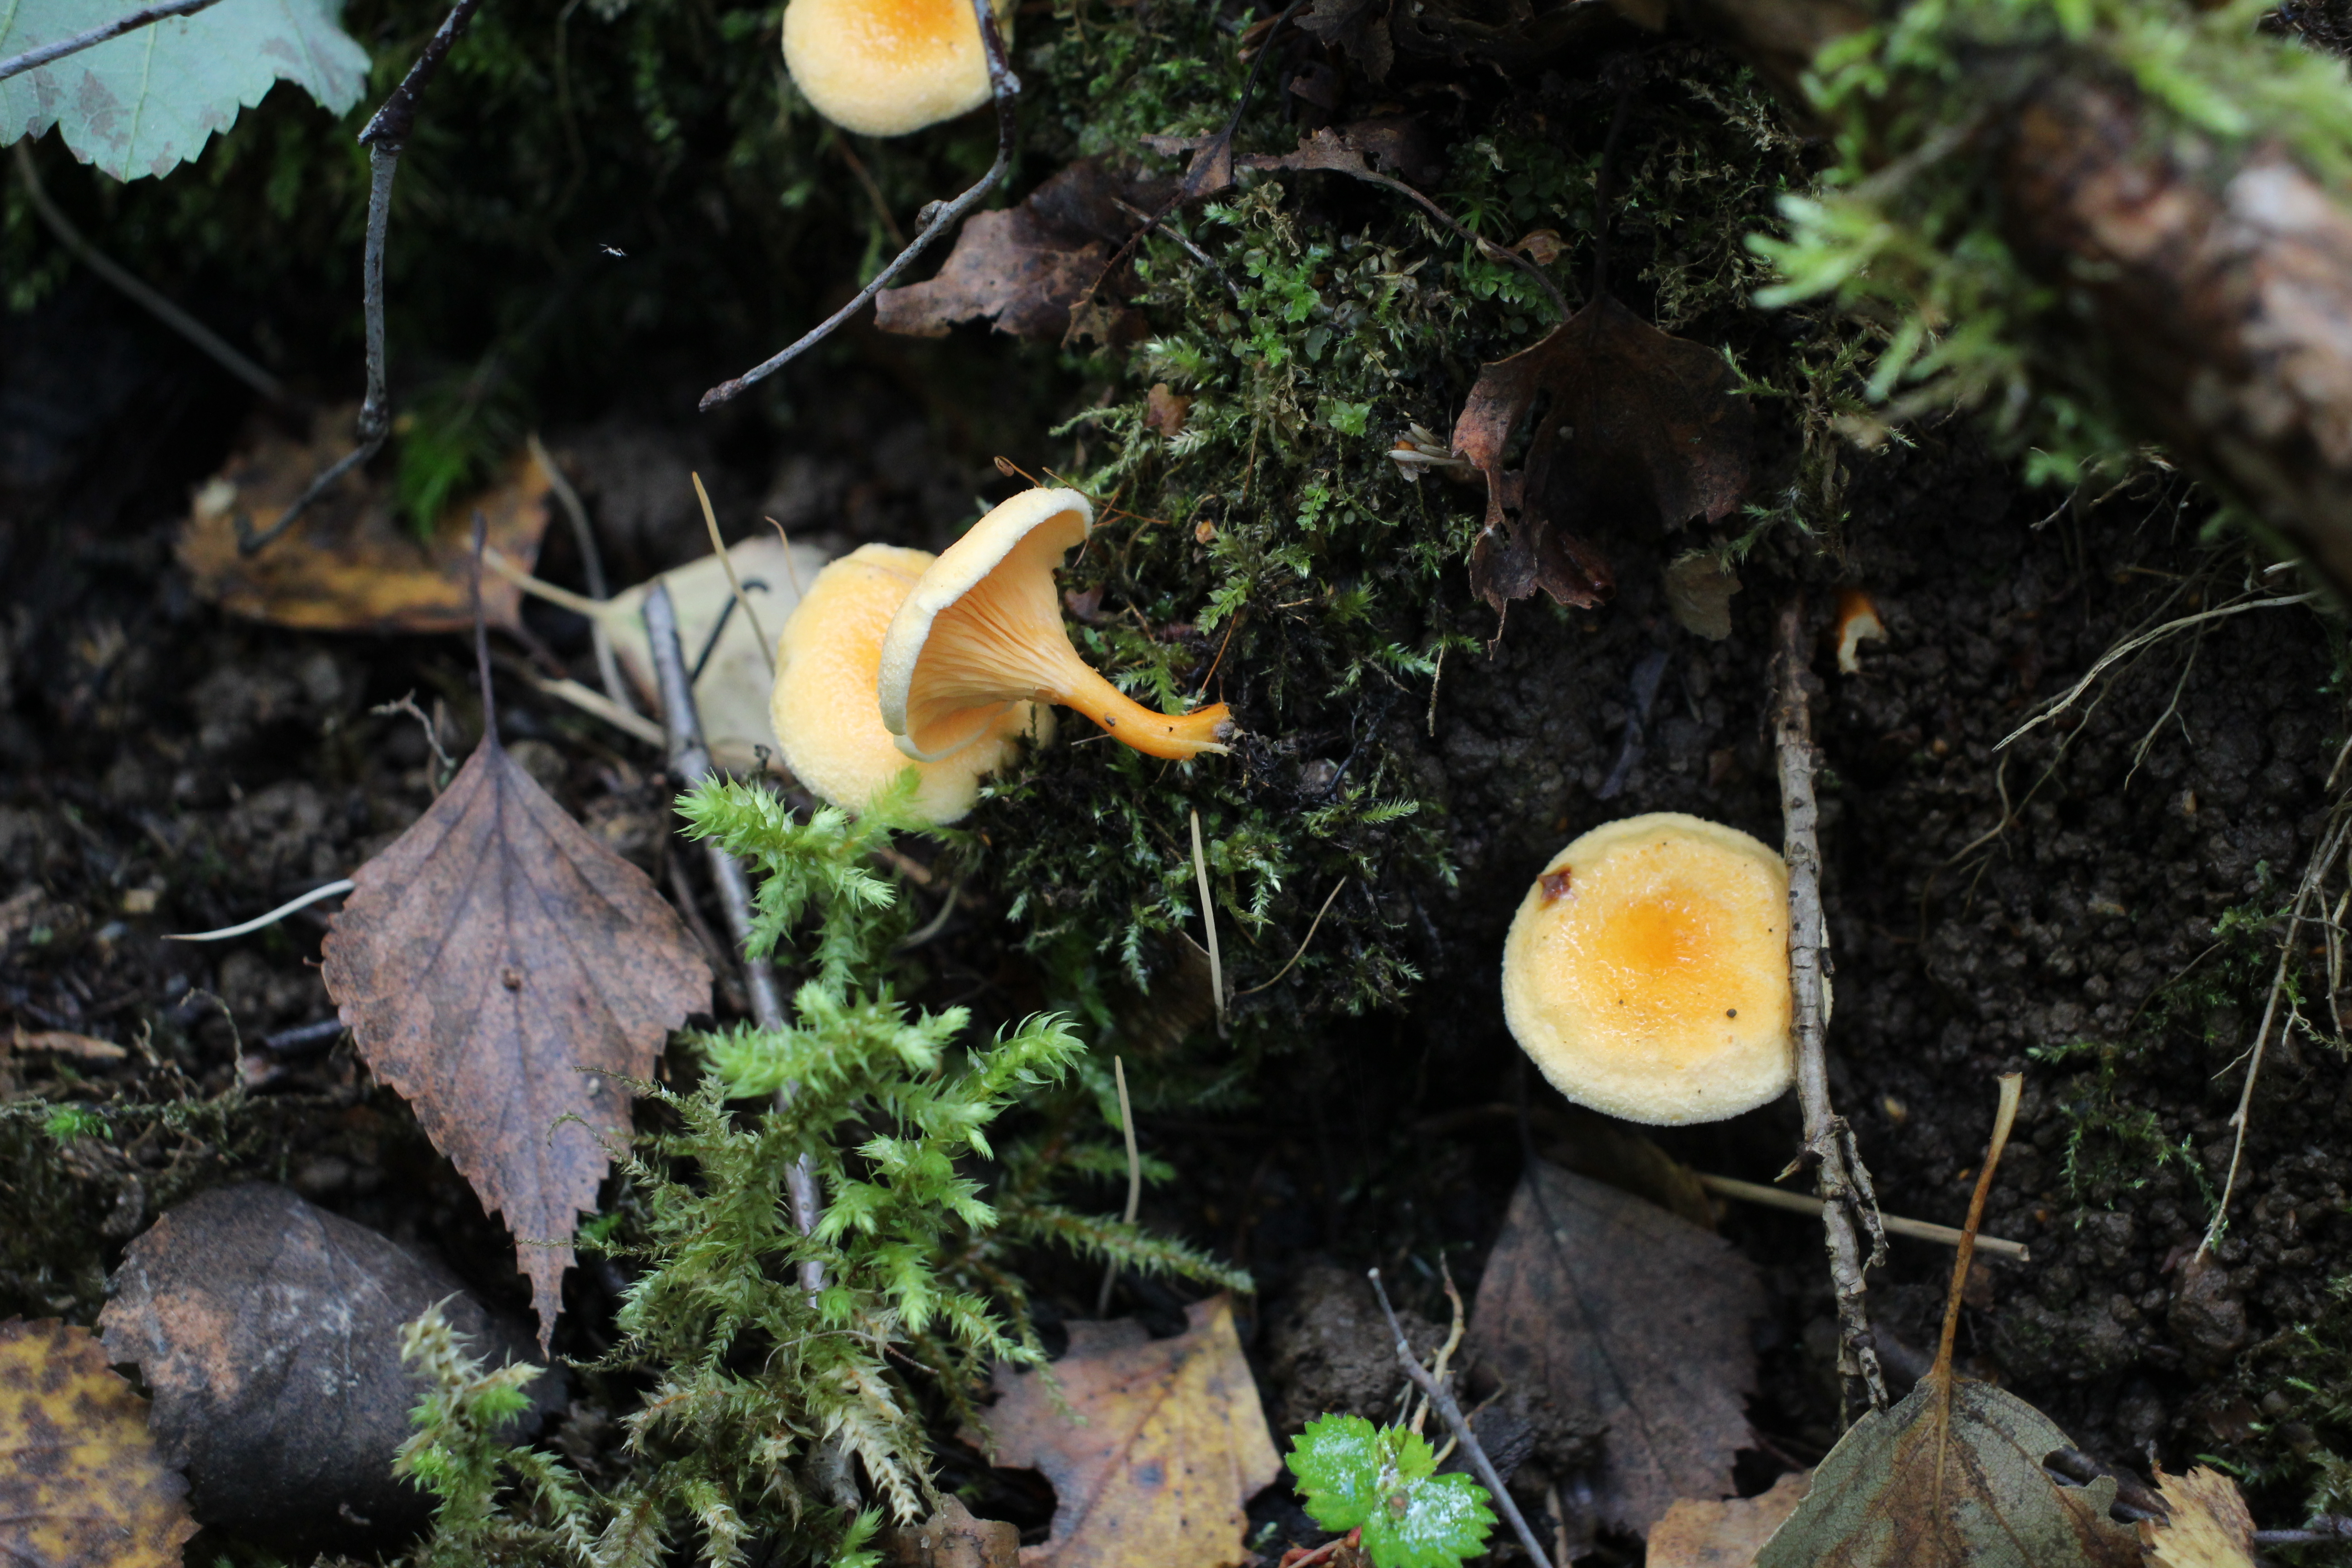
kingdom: Fungi
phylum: Basidiomycota
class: Agaricomycetes
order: Boletales
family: Hygrophoropsidaceae
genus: Hygrophoropsis
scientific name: Hygrophoropsis aurantiaca
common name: False chanterelle
